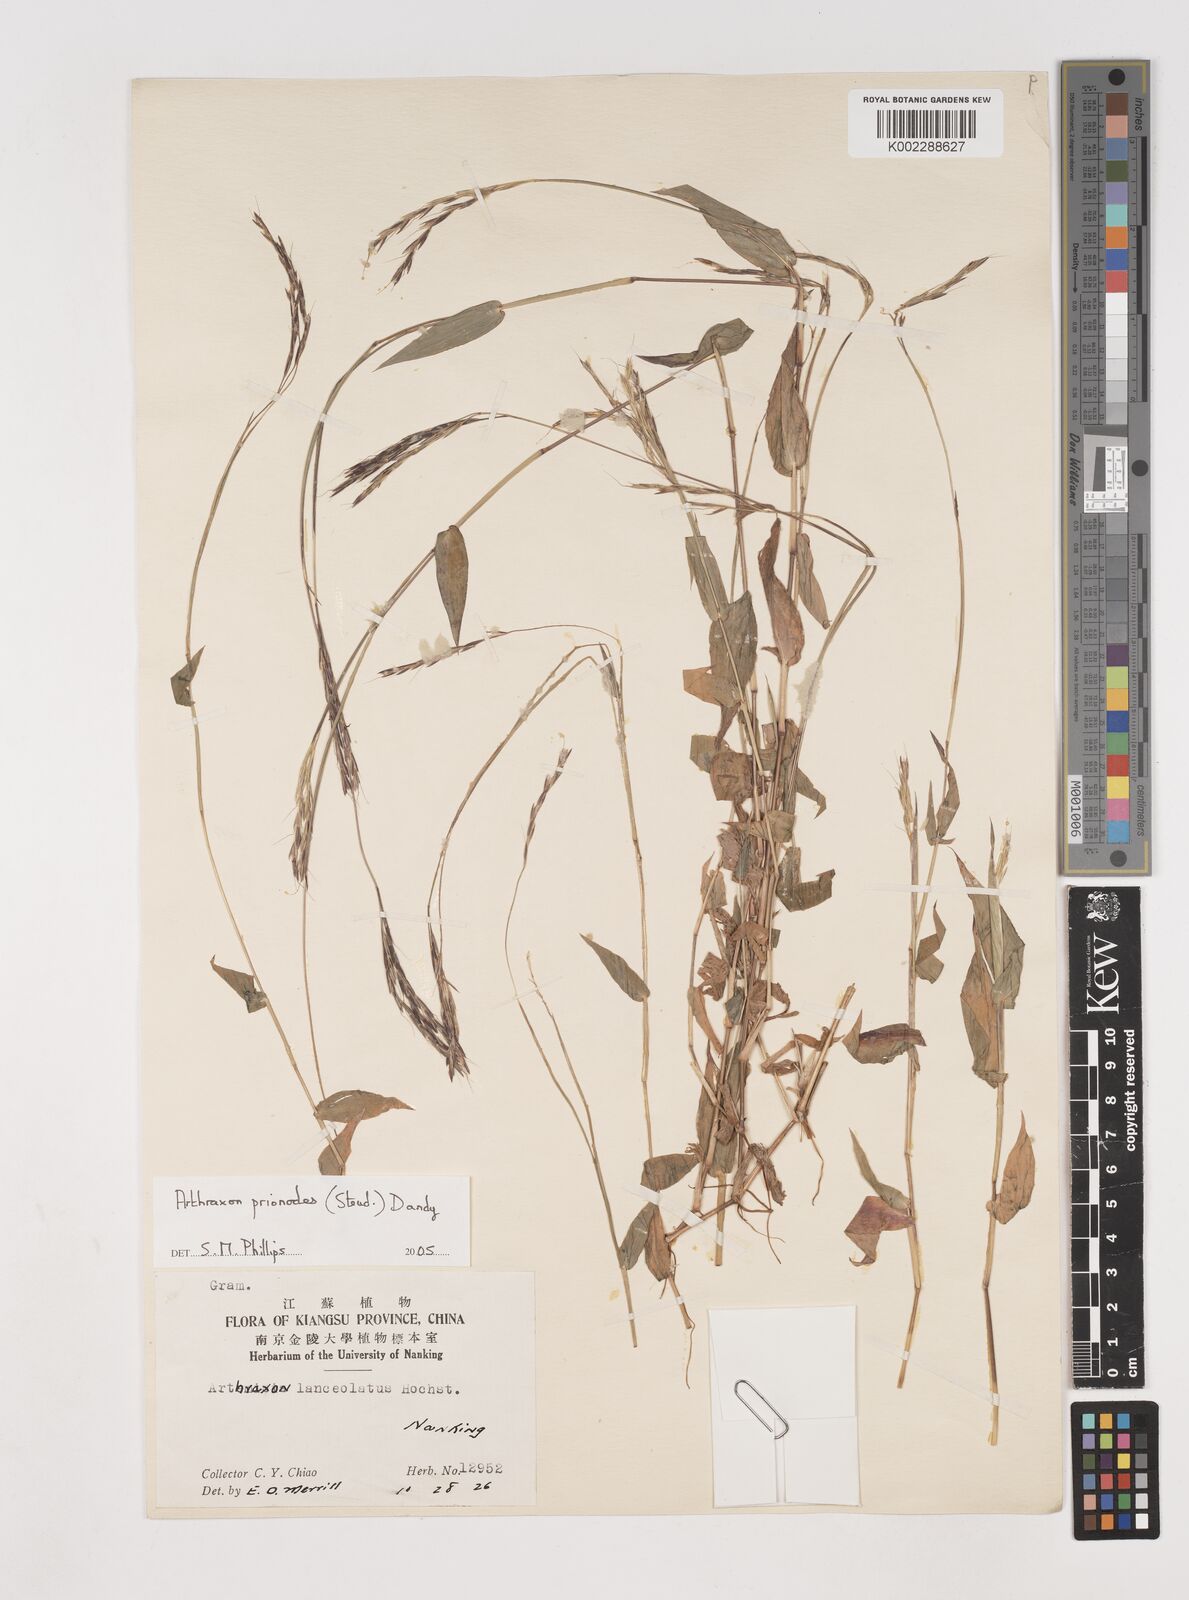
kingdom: Plantae
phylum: Tracheophyta
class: Liliopsida
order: Poales
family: Poaceae
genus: Arthraxon
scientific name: Arthraxon prionodes
